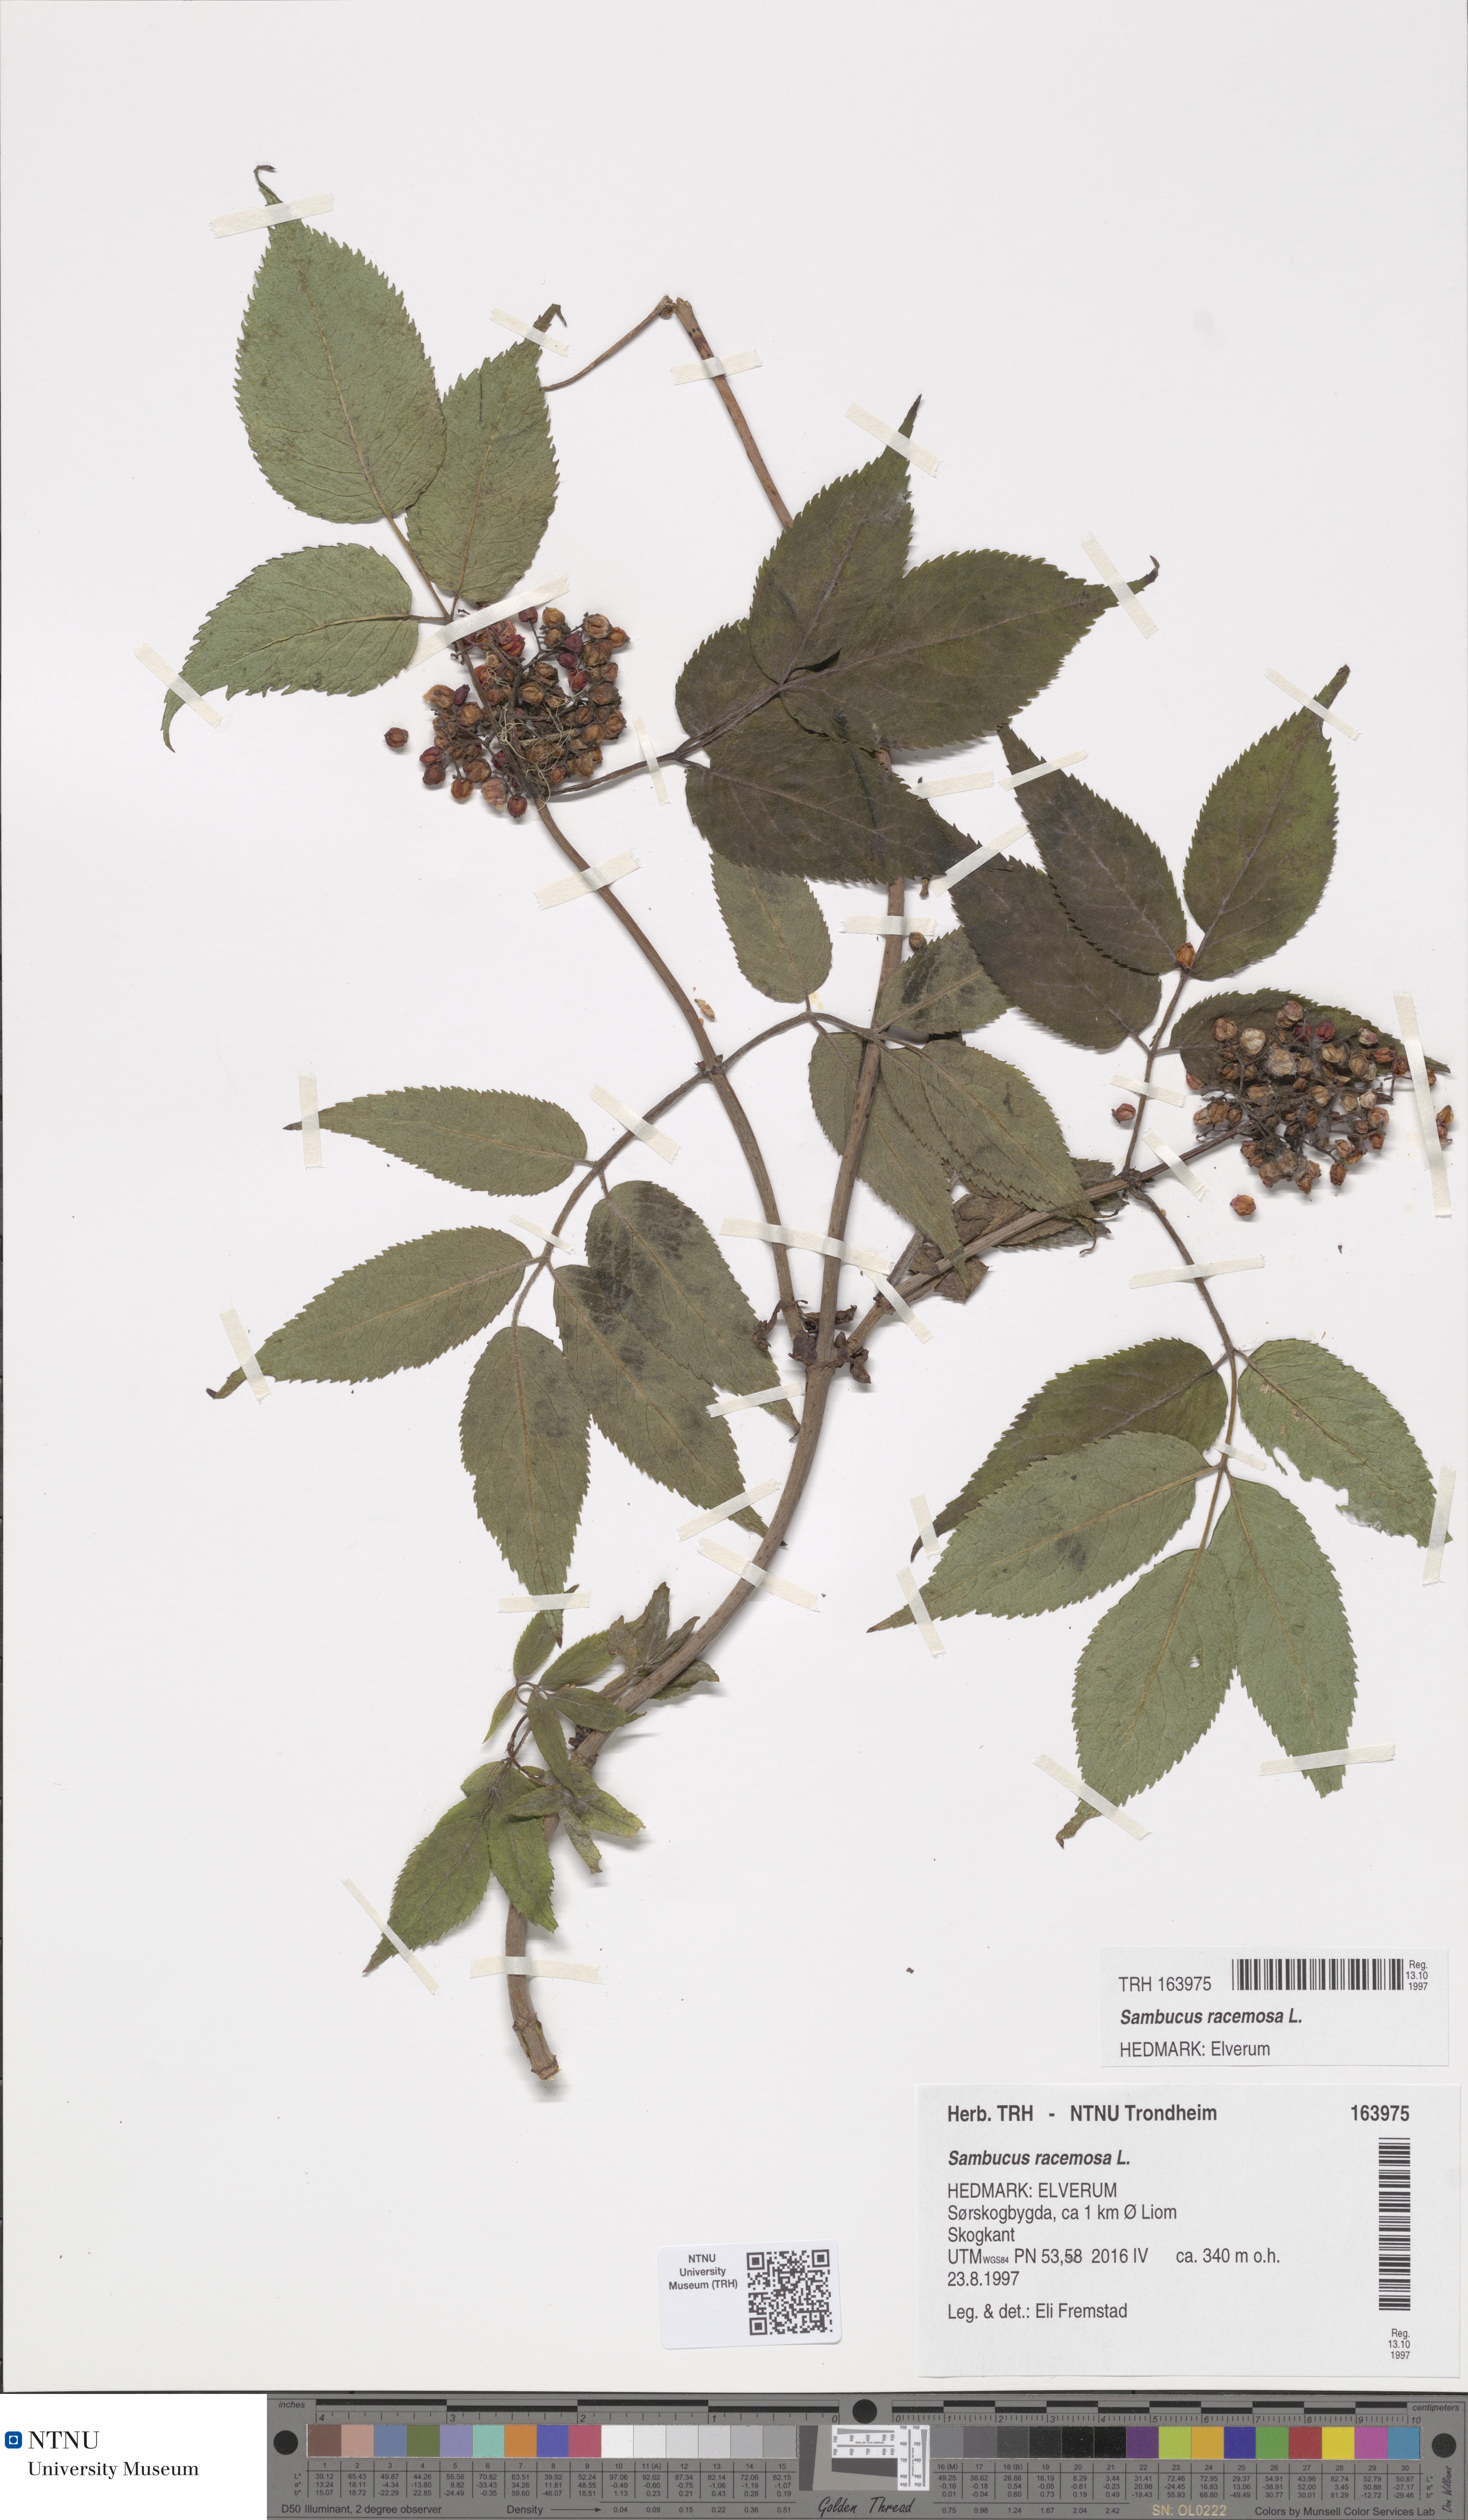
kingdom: Plantae
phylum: Tracheophyta
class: Magnoliopsida
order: Dipsacales
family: Viburnaceae
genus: Sambucus
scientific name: Sambucus racemosa
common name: Red-berried elder
